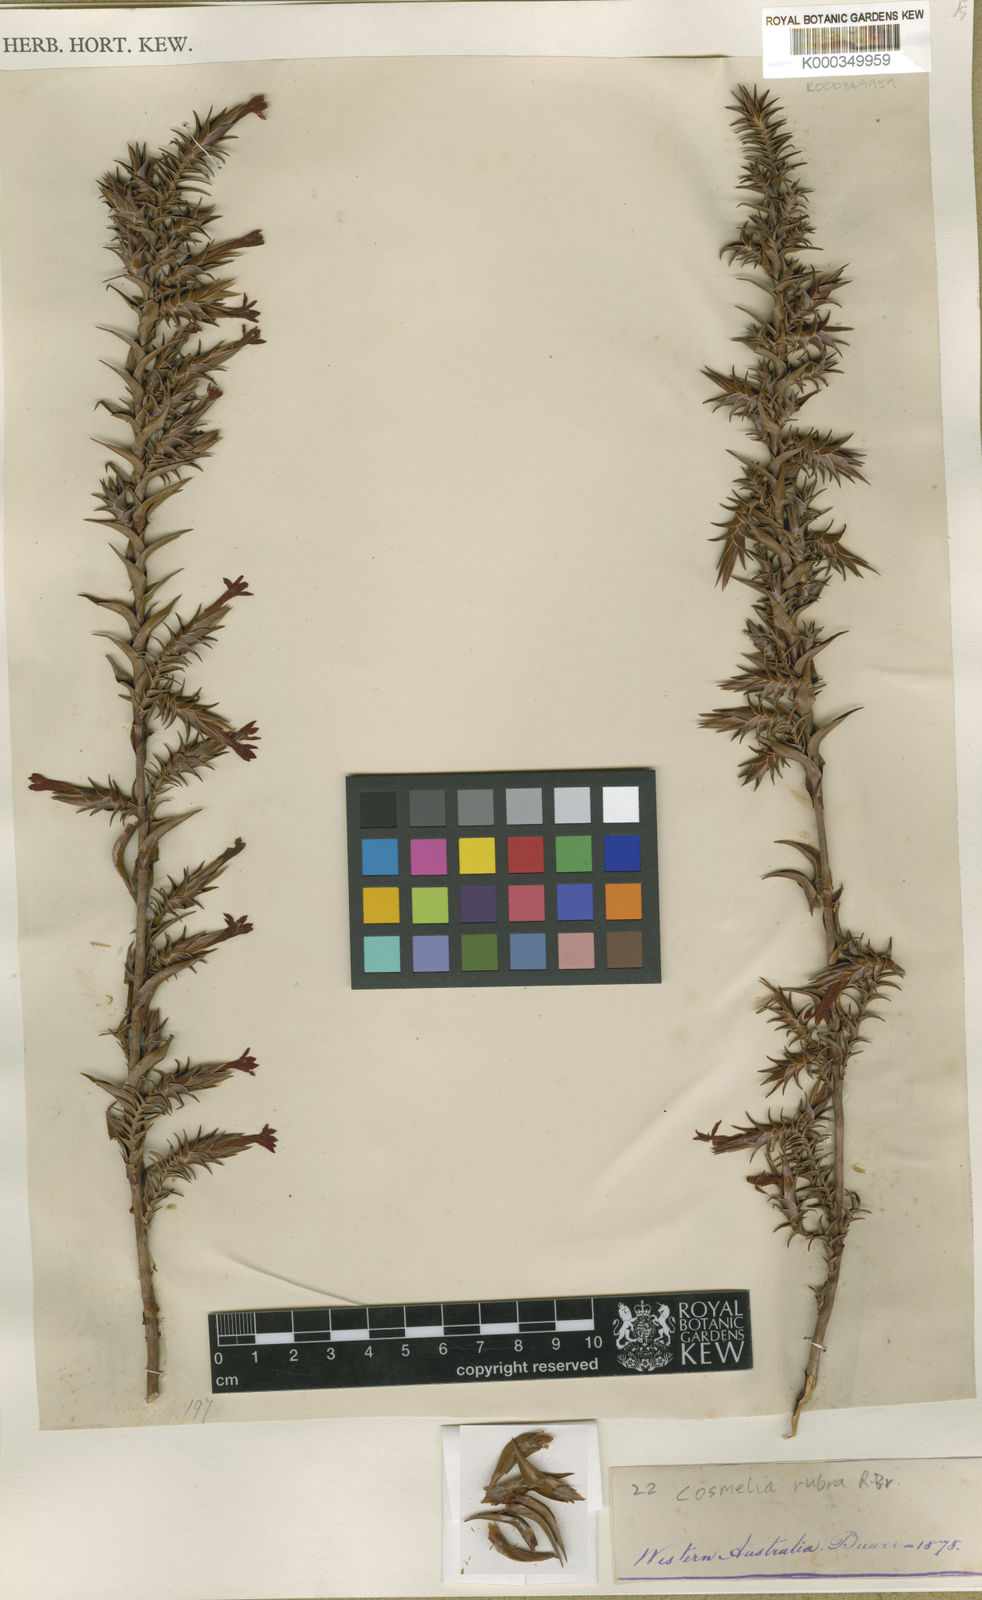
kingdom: Plantae
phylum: Tracheophyta
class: Magnoliopsida
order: Ericales
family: Ericaceae
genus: Cosmelia
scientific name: Cosmelia rubra
